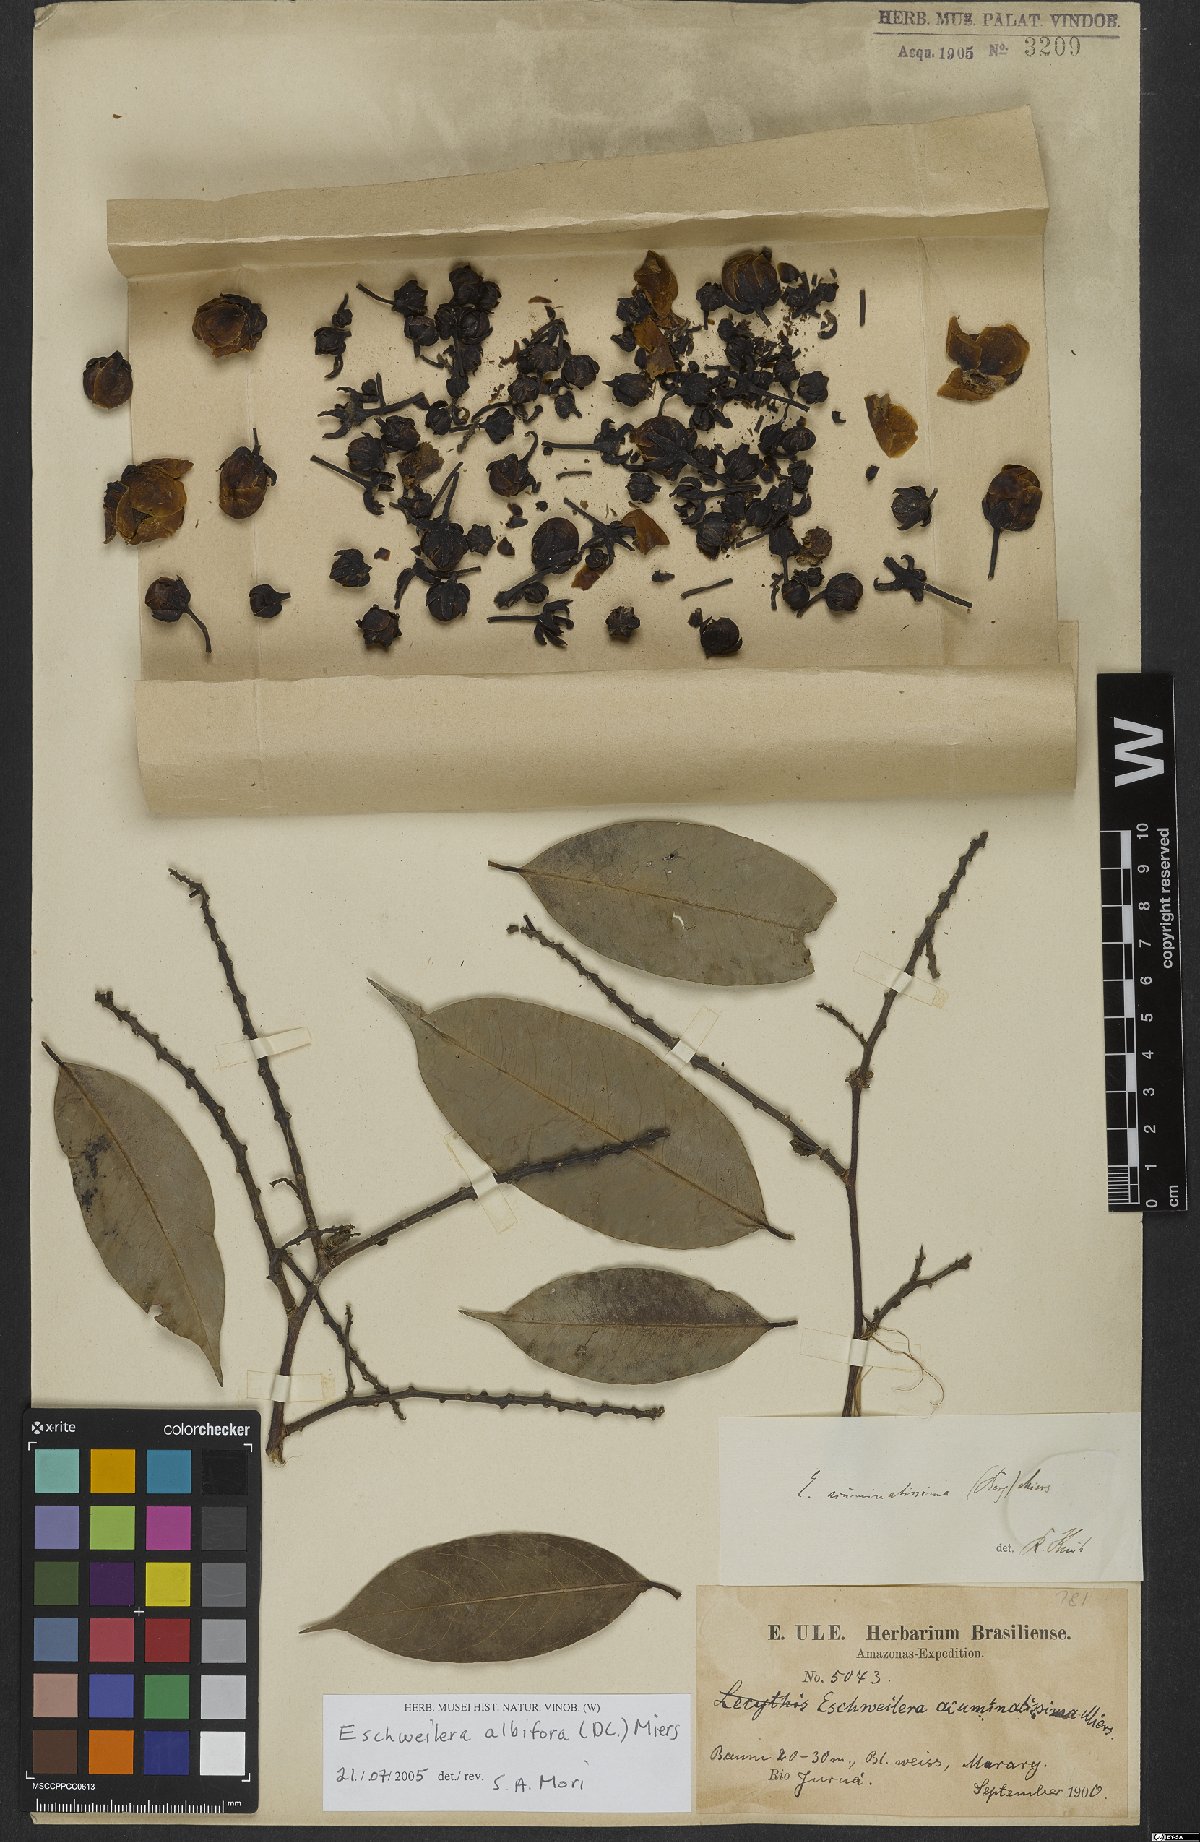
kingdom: Plantae
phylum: Tracheophyta
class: Magnoliopsida
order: Ericales
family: Lecythidaceae
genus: Eschweilera
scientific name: Eschweilera albiflora
